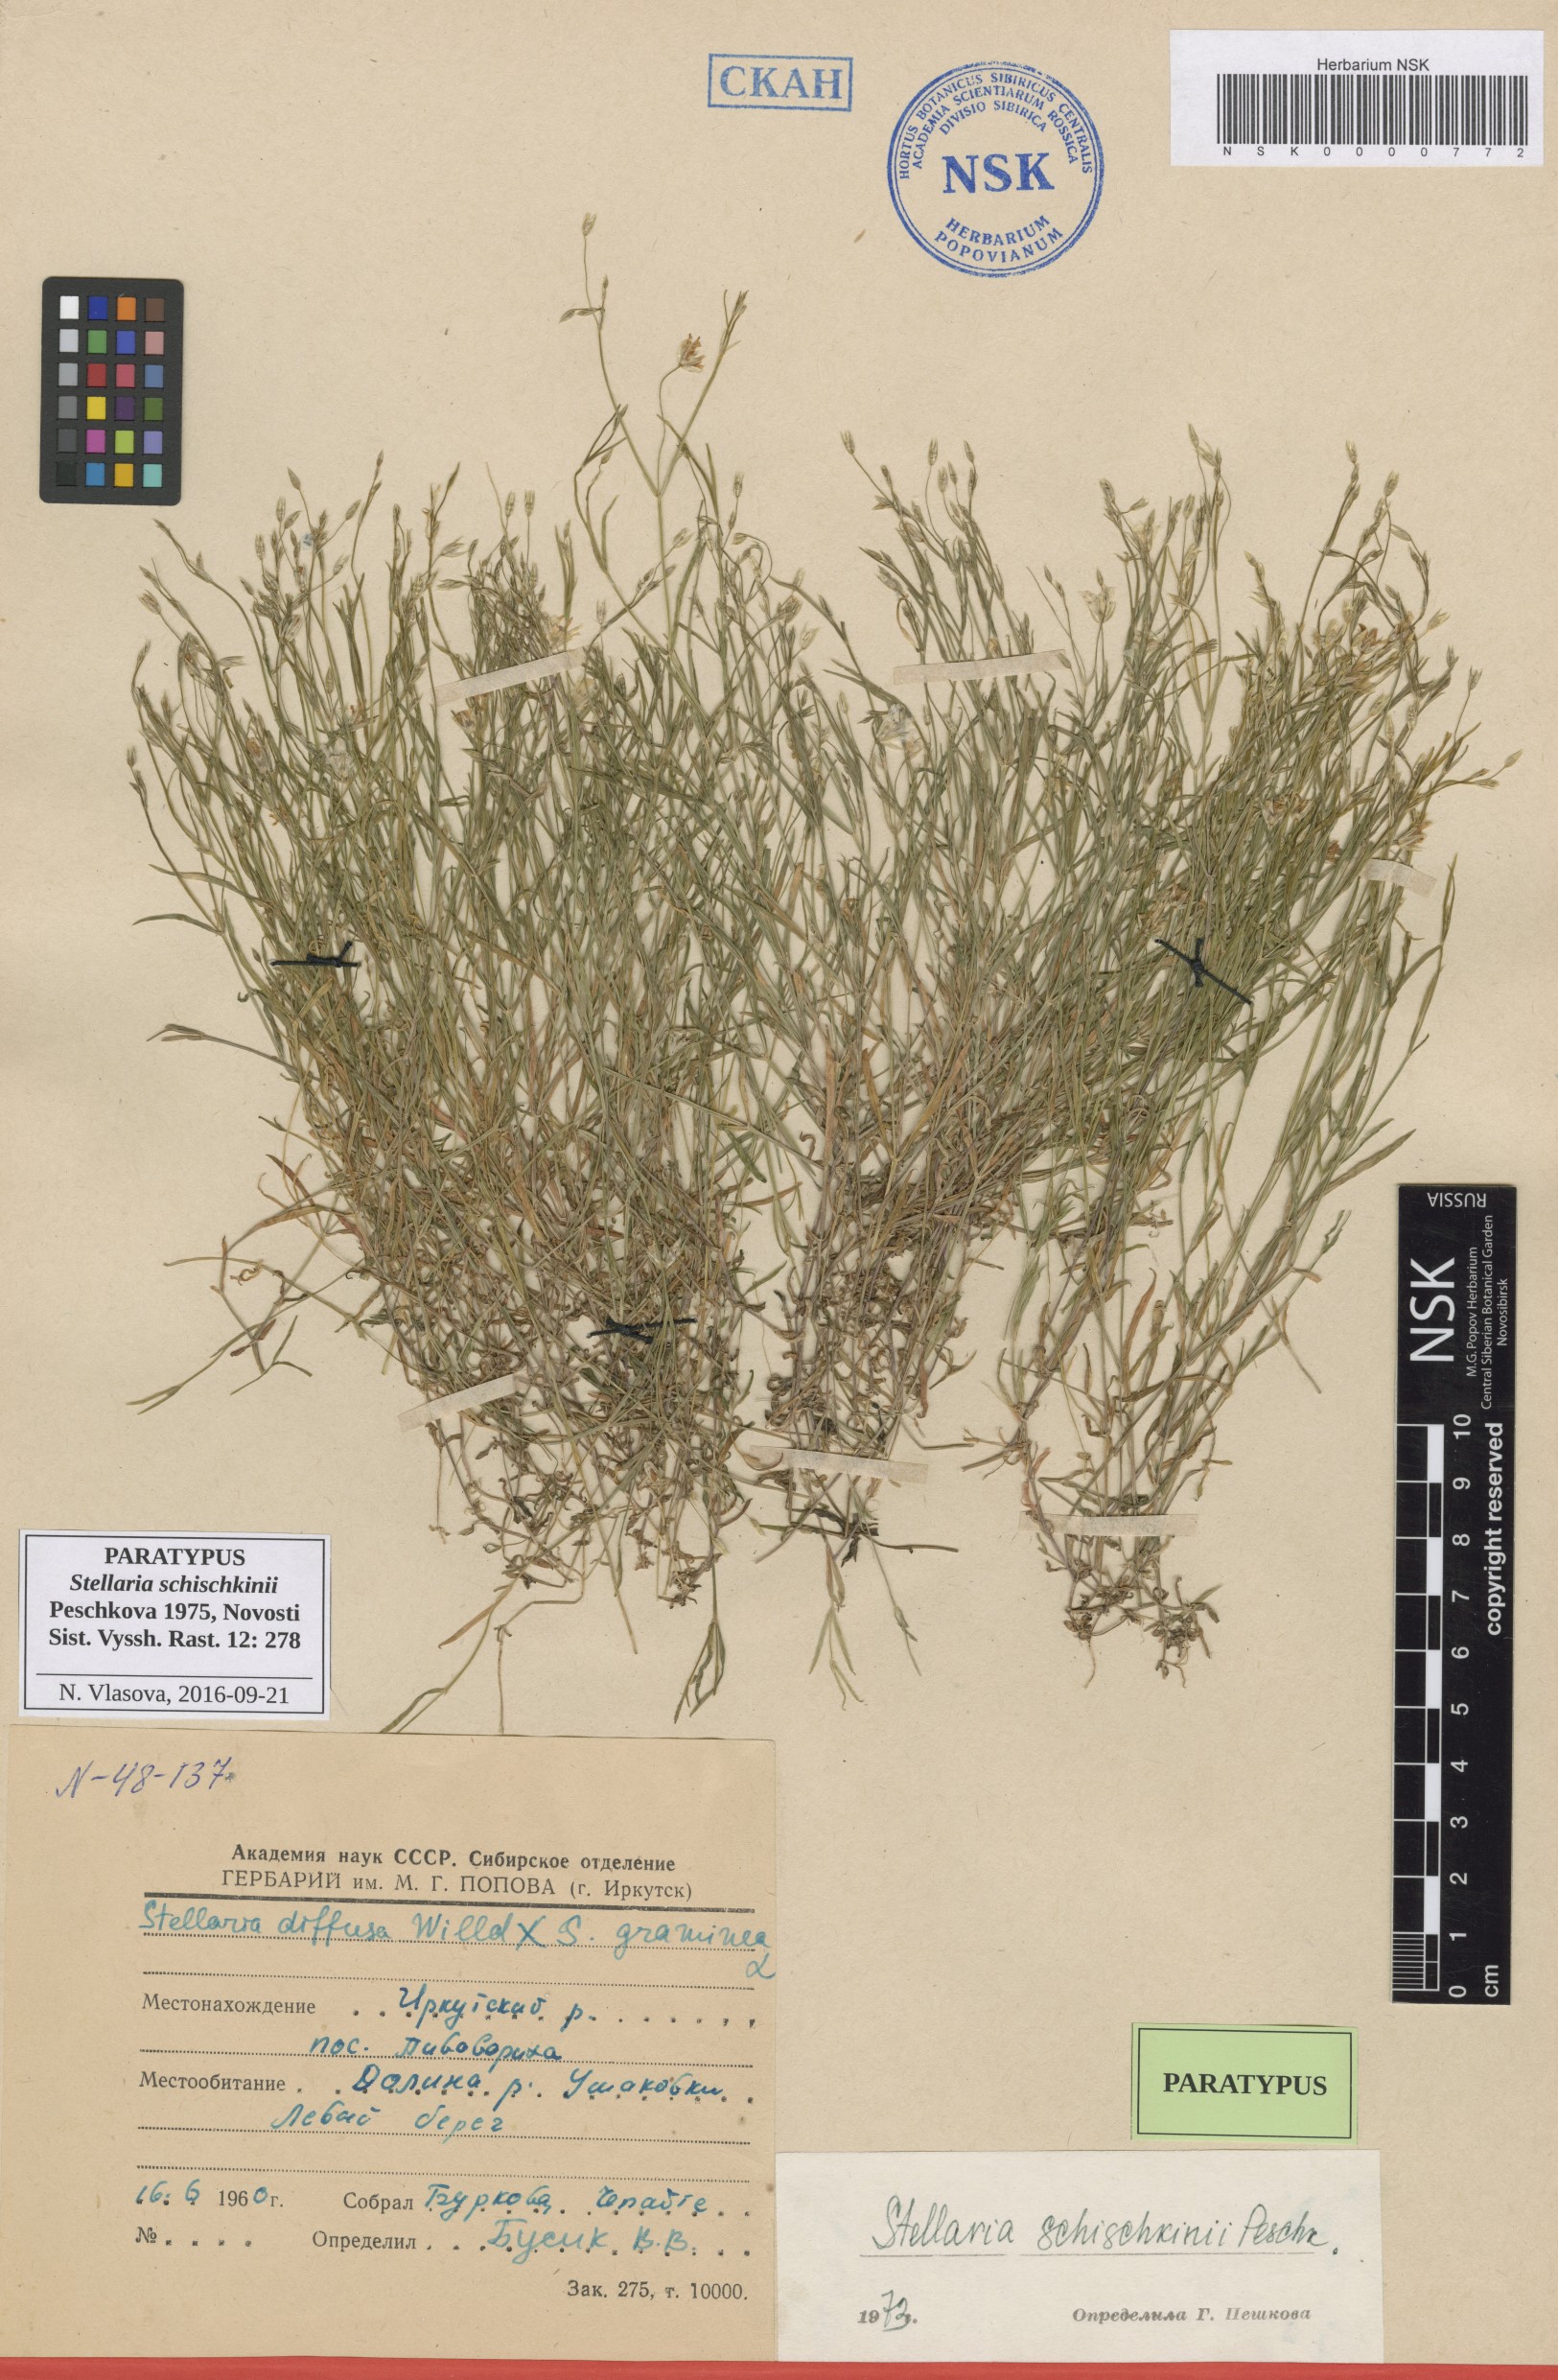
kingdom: Plantae
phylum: Tracheophyta
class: Magnoliopsida
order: Caryophyllales
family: Caryophyllaceae
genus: Stellaria
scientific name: Stellaria schischkinii
